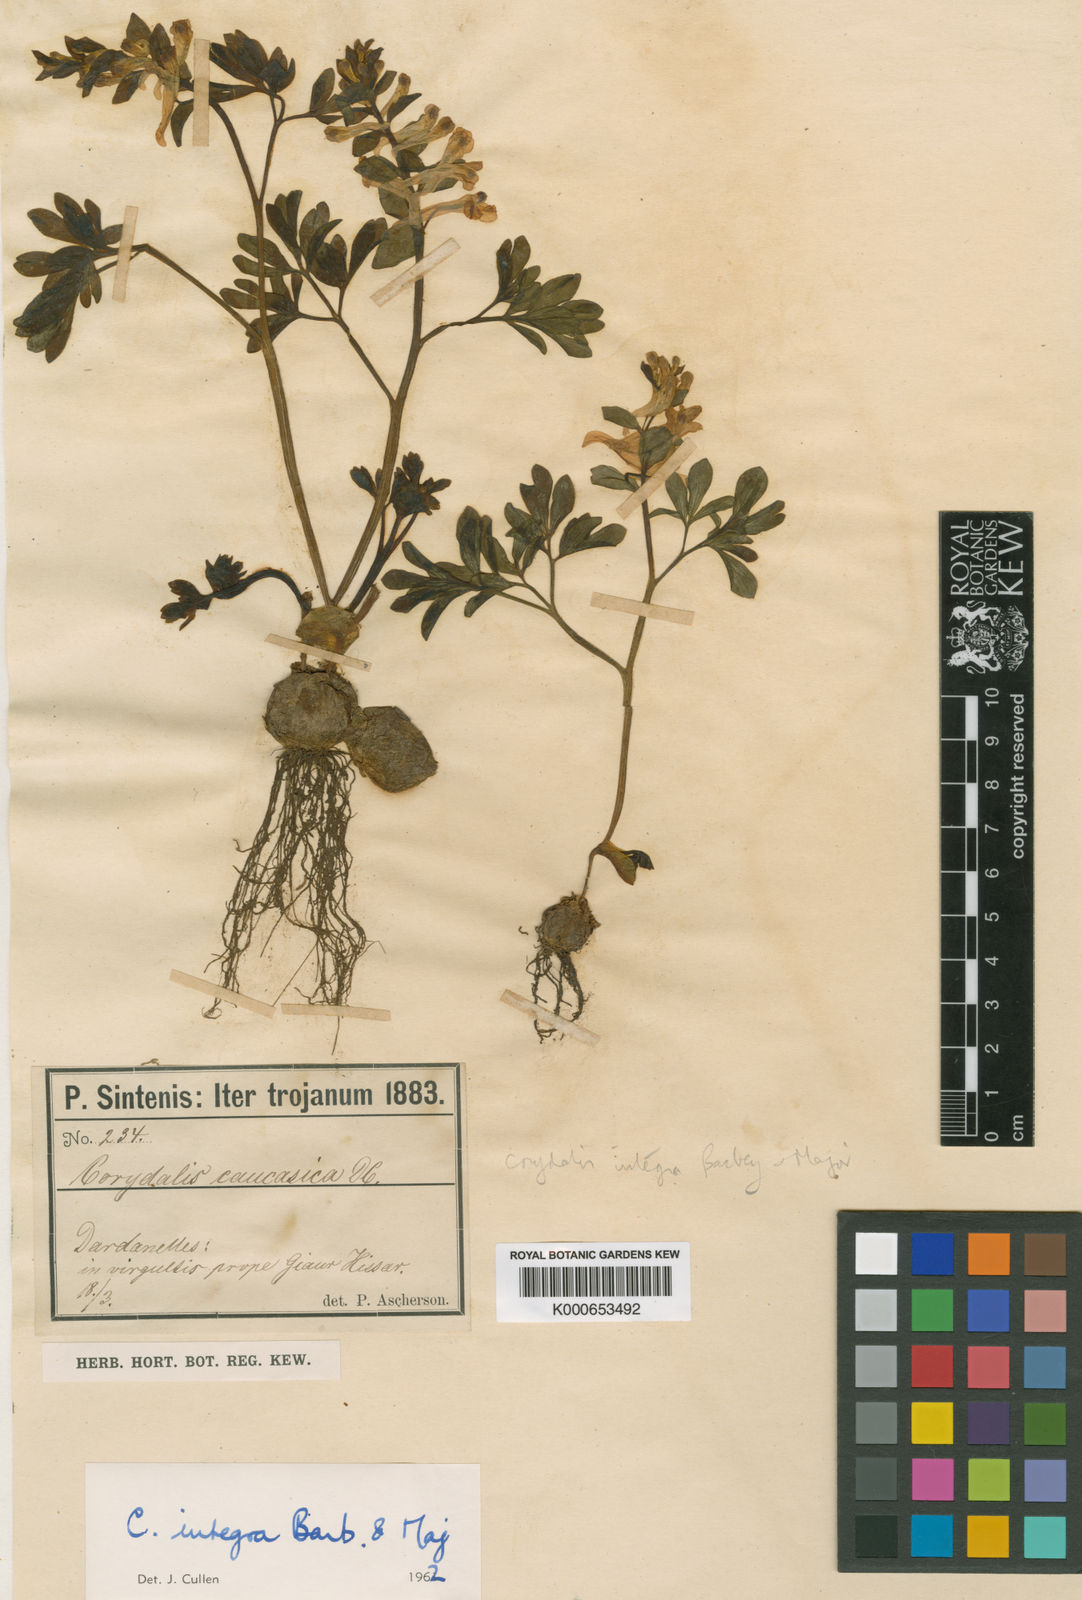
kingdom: Plantae
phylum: Tracheophyta
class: Magnoliopsida
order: Ranunculales
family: Papaveraceae
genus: Corydalis
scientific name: Corydalis integra
